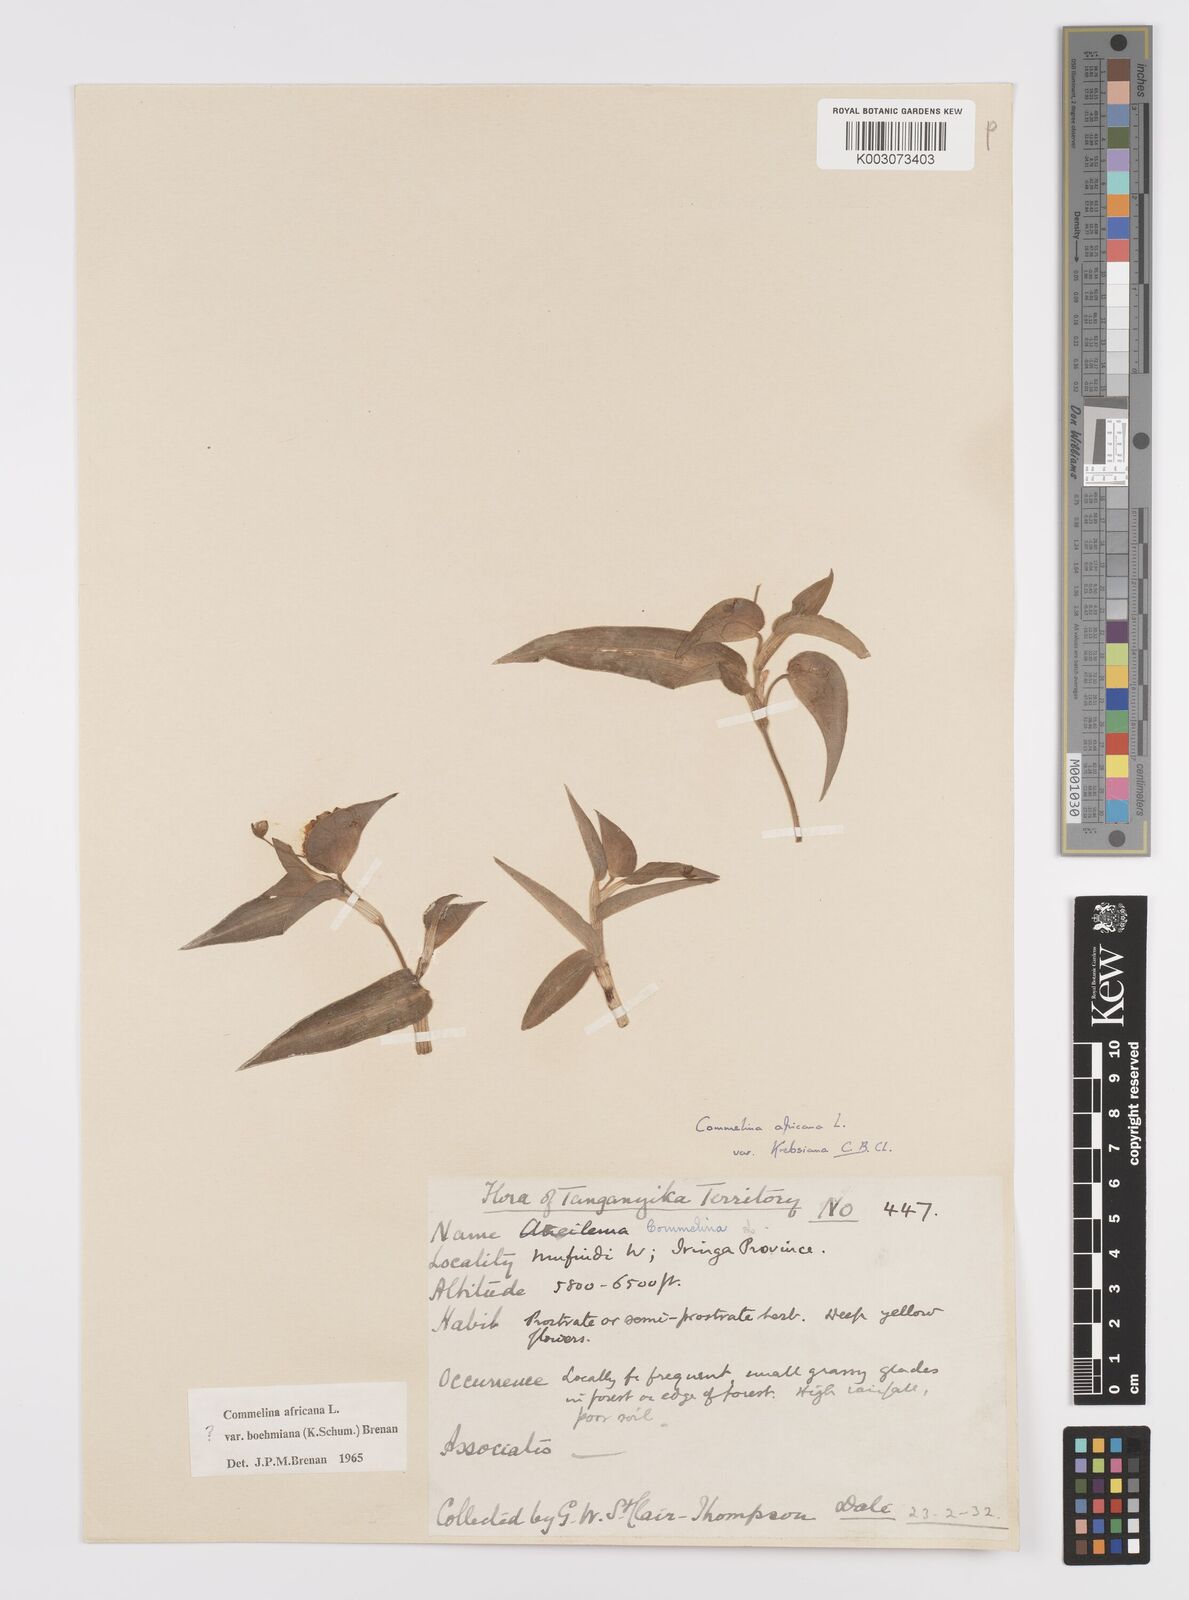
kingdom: Plantae
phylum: Tracheophyta
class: Liliopsida
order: Commelinales
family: Commelinaceae
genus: Commelina
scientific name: Commelina africana
